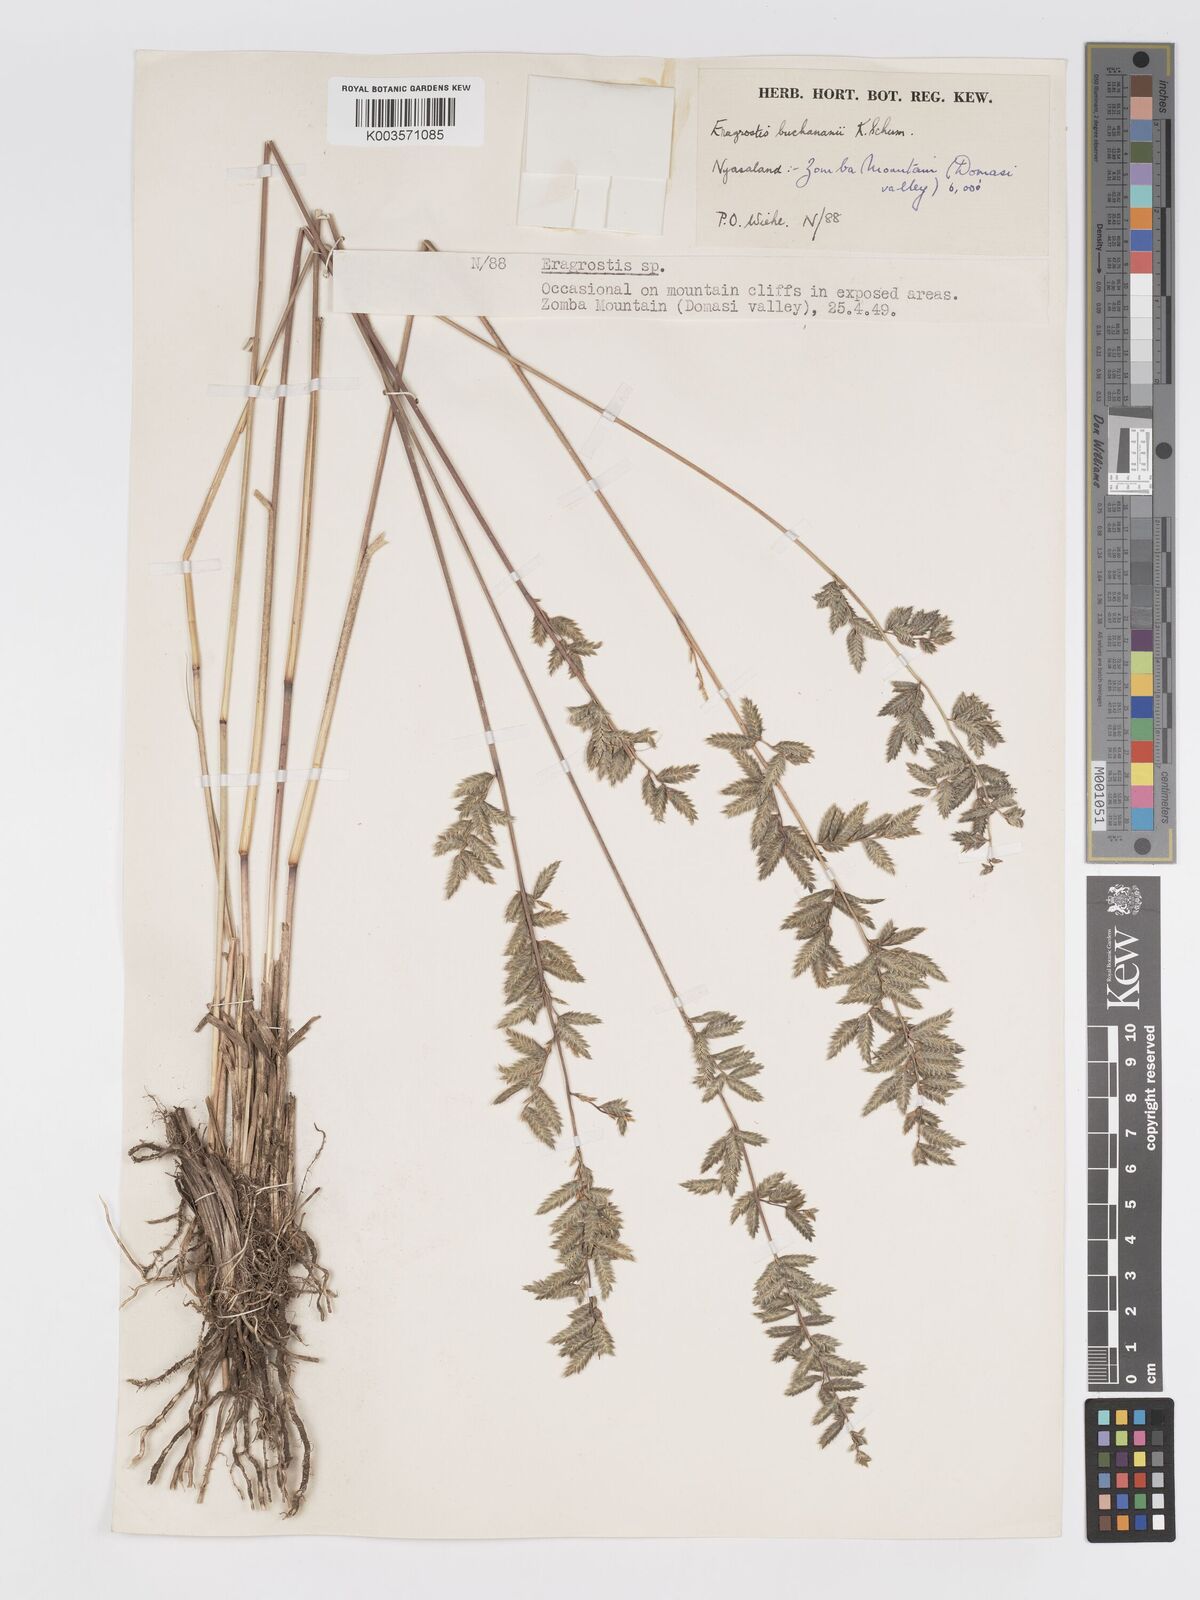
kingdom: Plantae
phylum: Tracheophyta
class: Liliopsida
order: Poales
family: Poaceae
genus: Eragrostis
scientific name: Eragrostis nindensis
